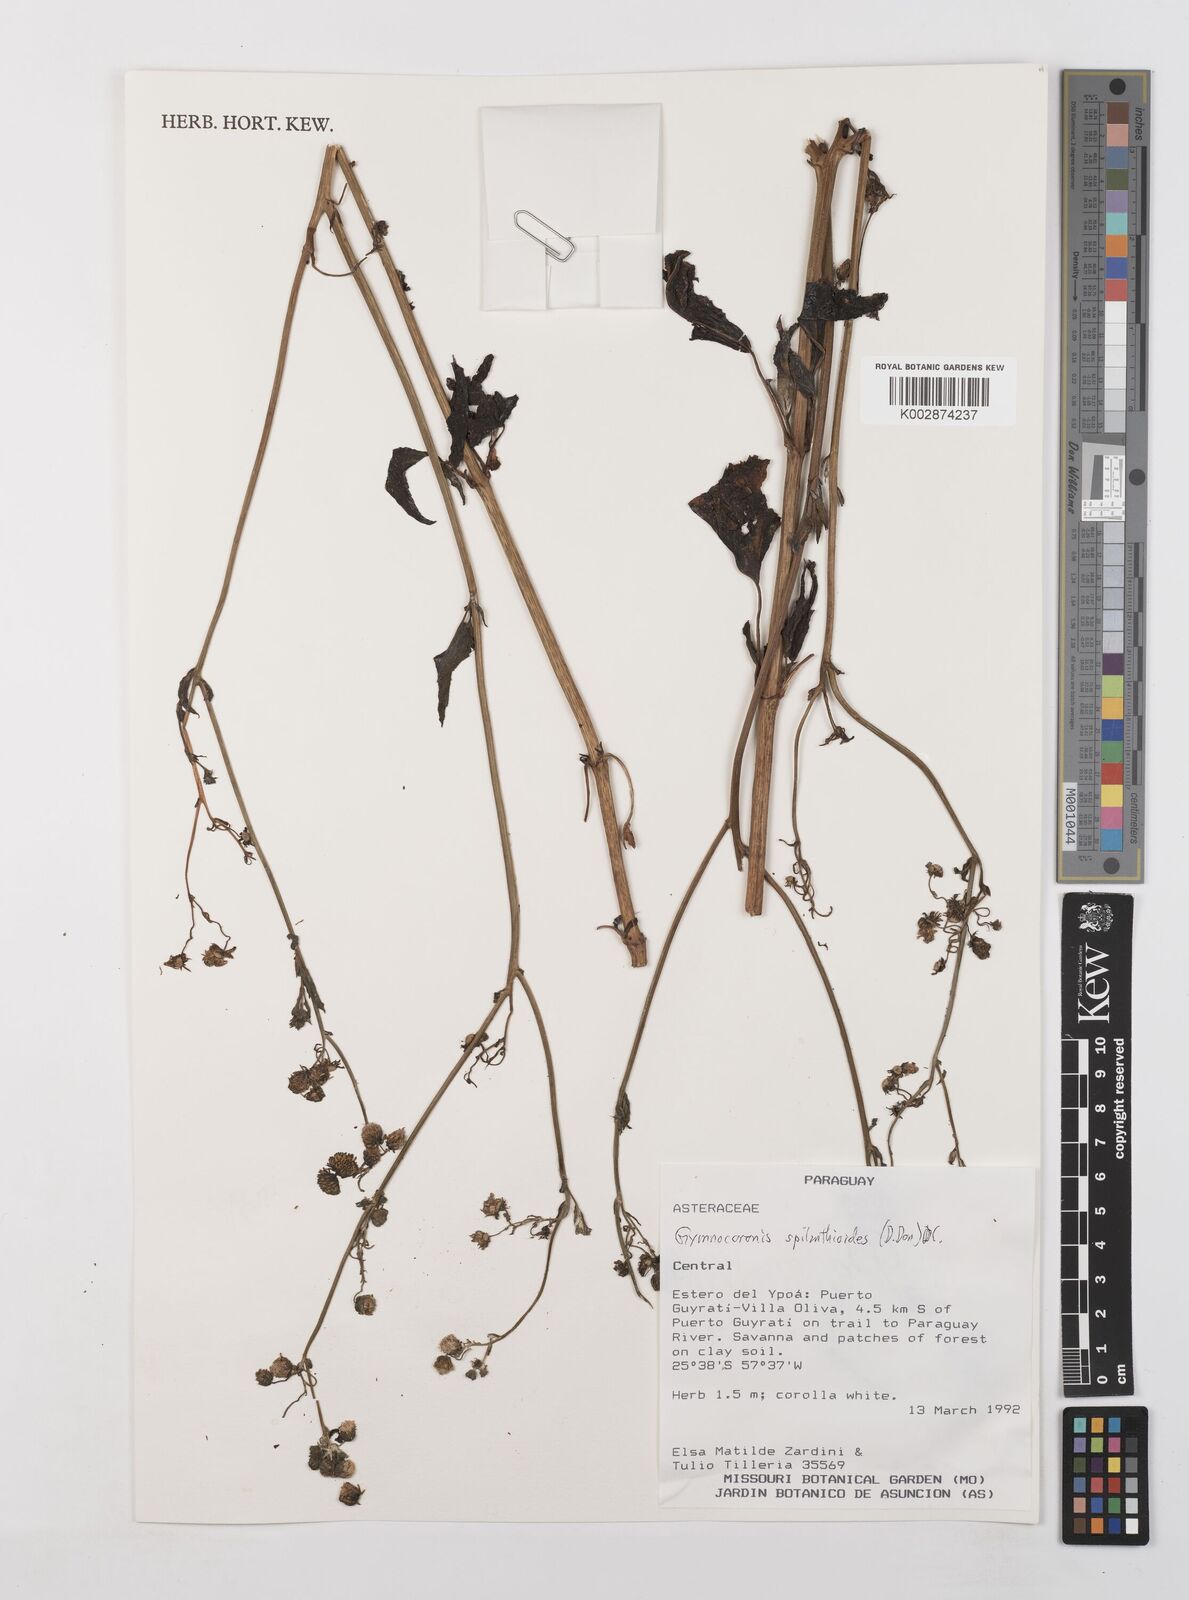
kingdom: Plantae
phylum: Tracheophyta
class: Magnoliopsida
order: Asterales
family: Asteraceae
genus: Gymnocoronis
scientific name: Gymnocoronis spilanthoides
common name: Senegal teaplant
